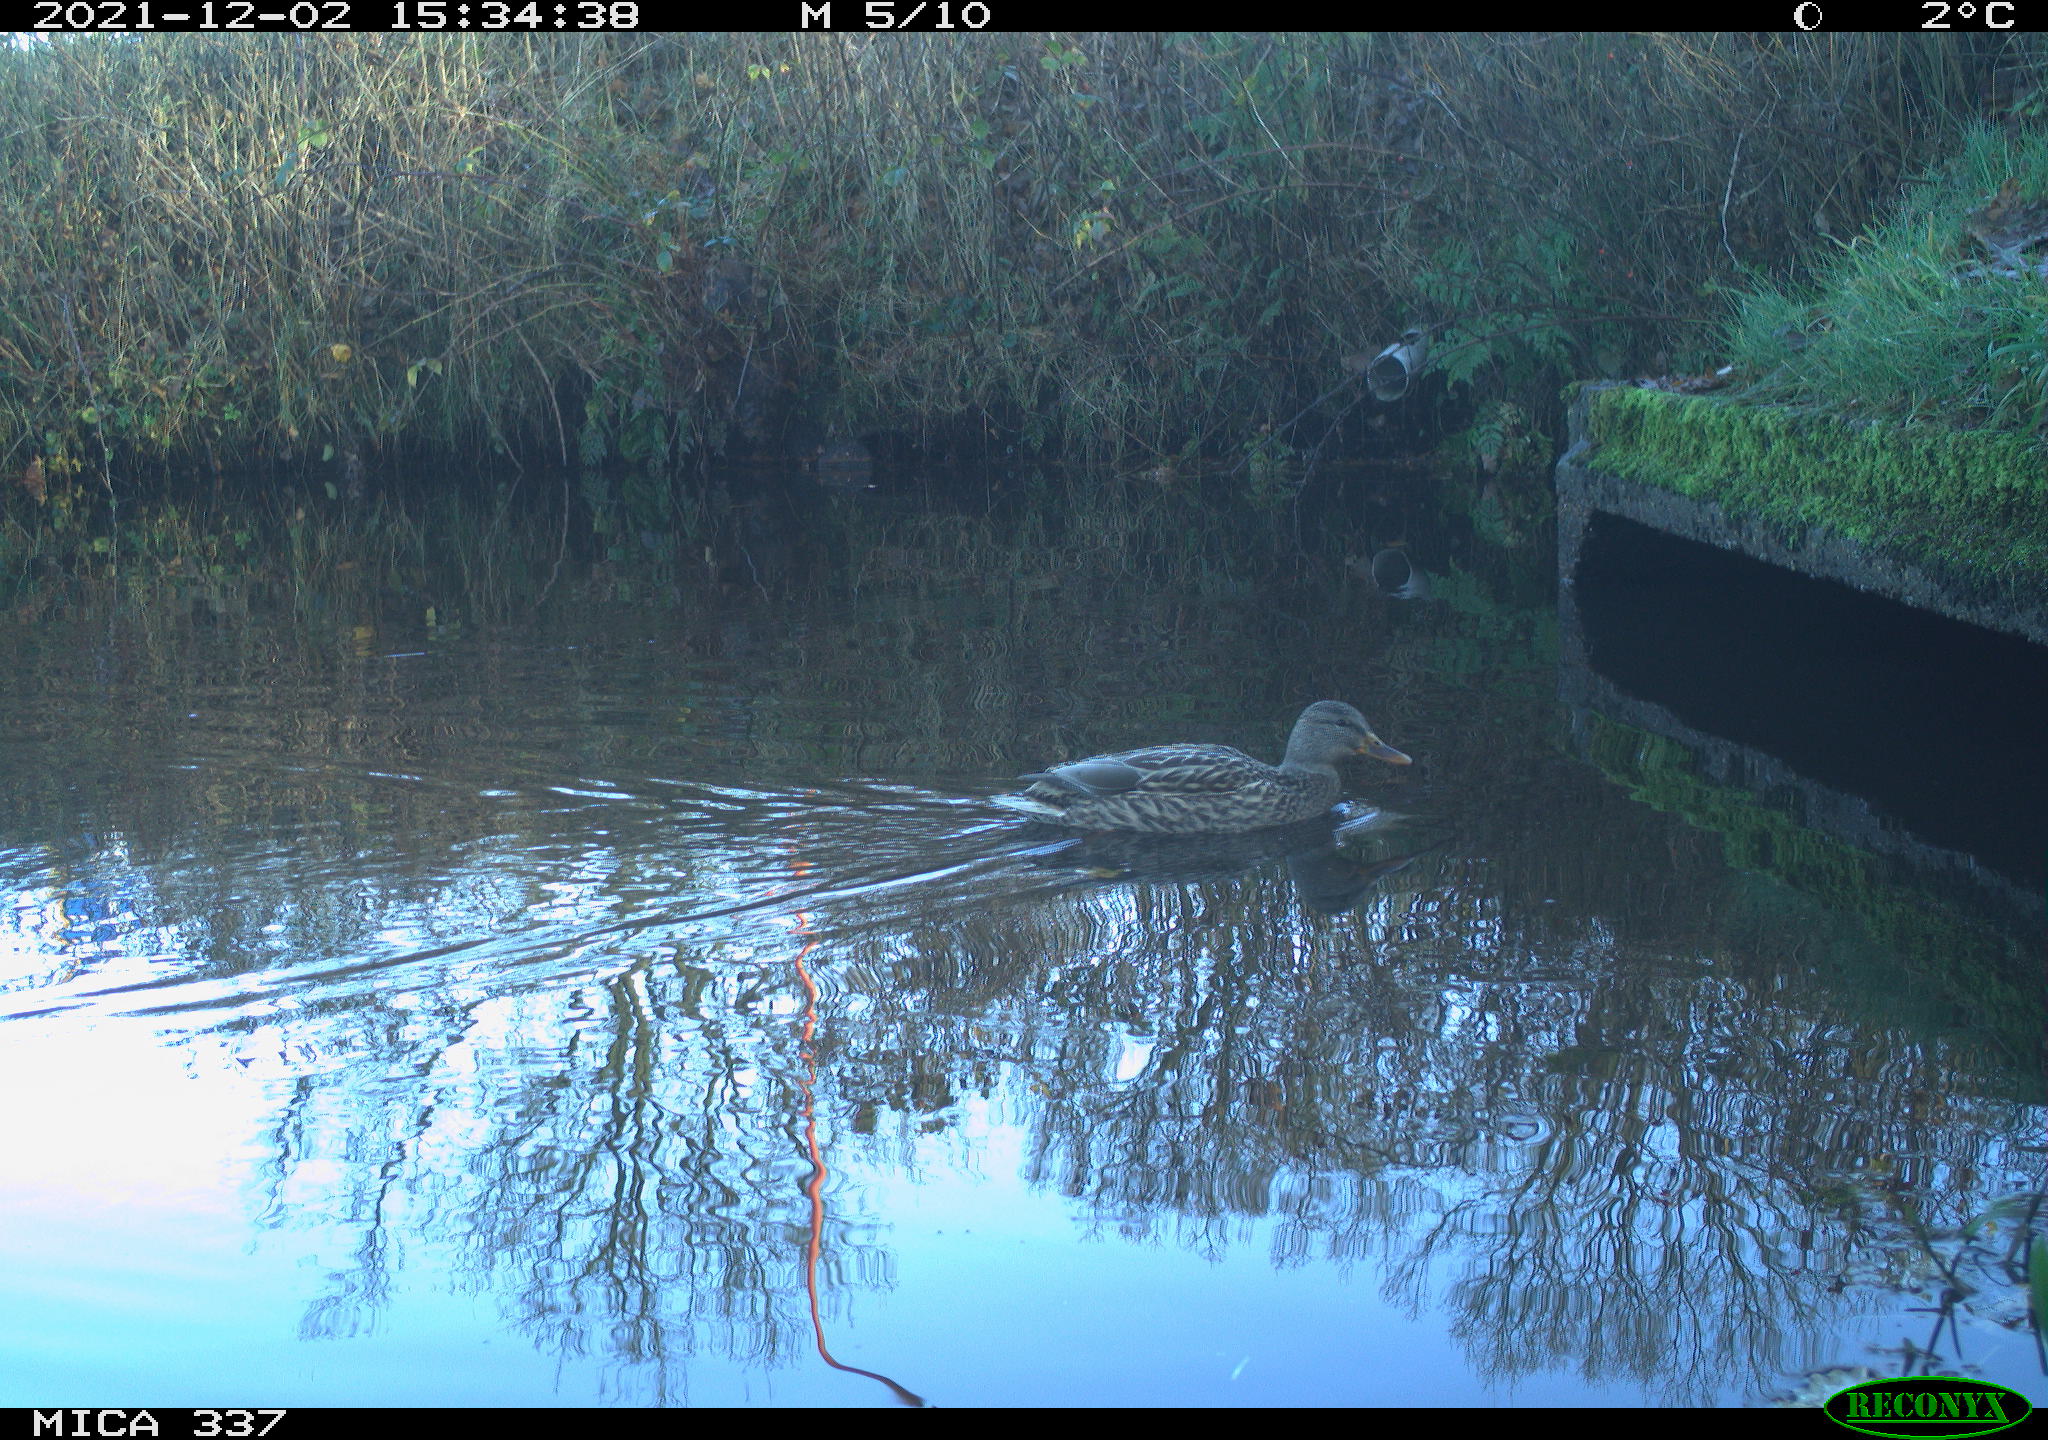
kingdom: Animalia
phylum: Chordata
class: Aves
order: Anseriformes
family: Anatidae
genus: Anas
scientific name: Anas platyrhynchos
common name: Mallard
